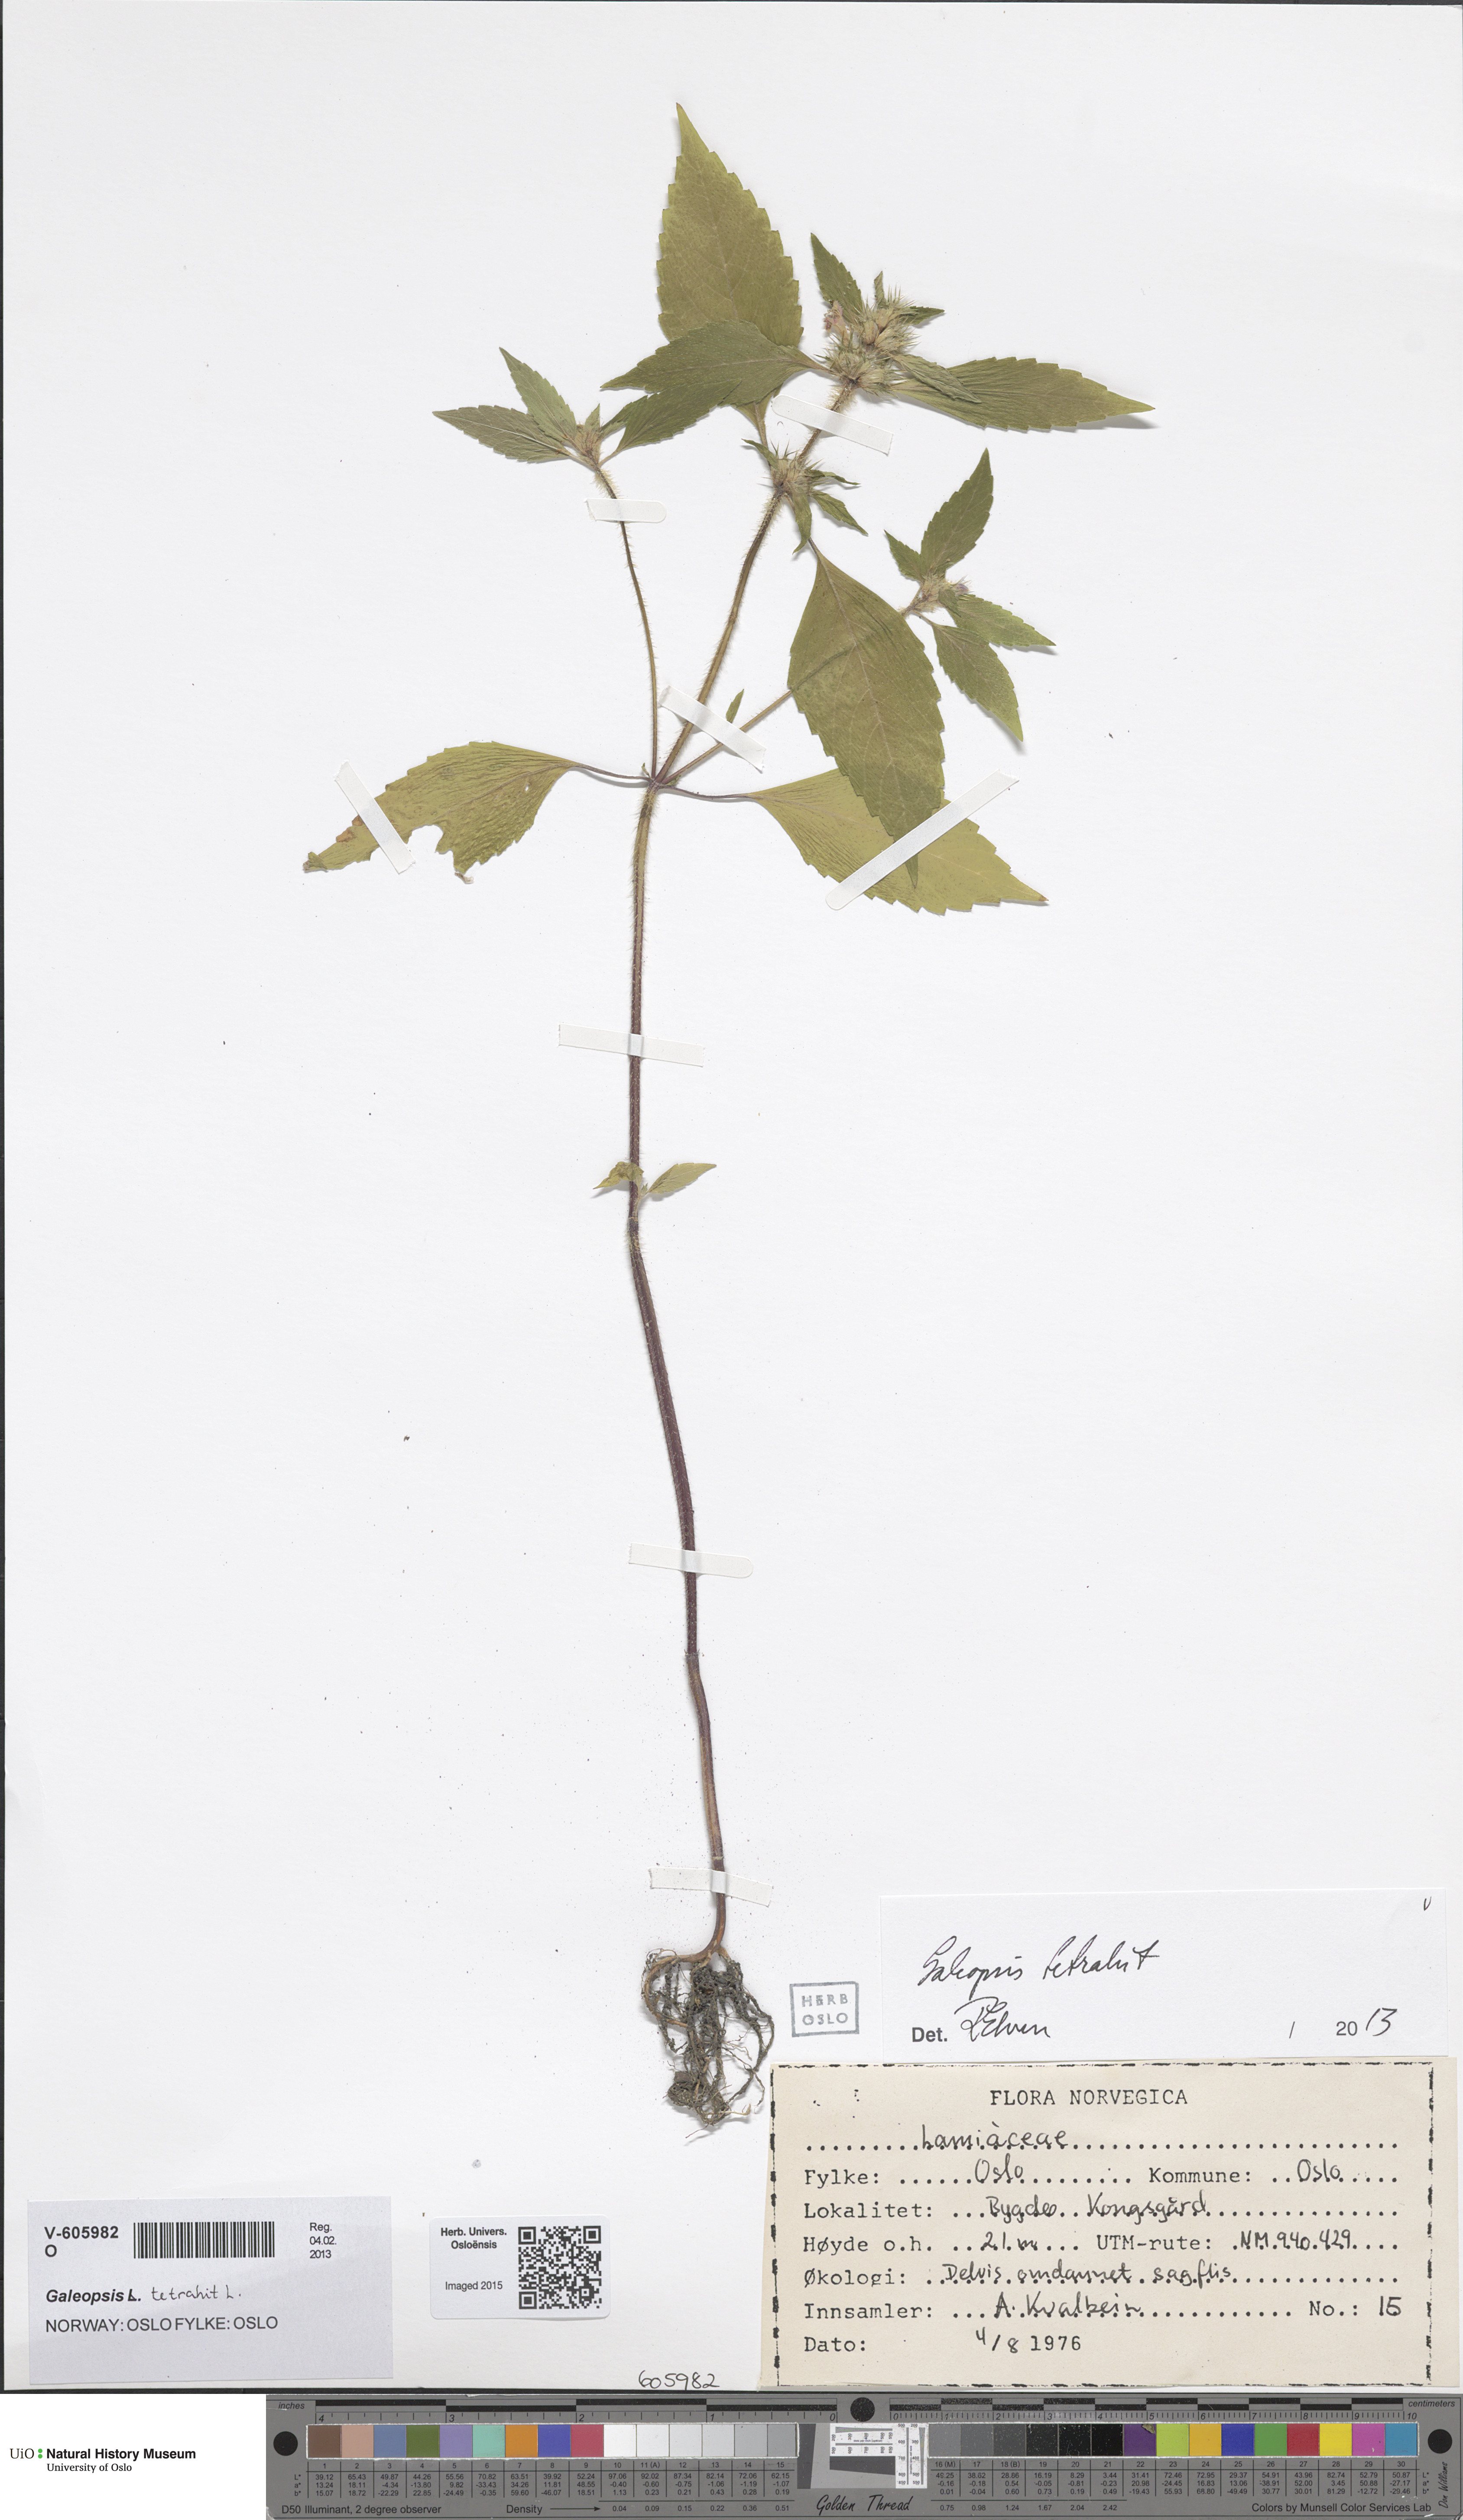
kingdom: Plantae
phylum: Tracheophyta
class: Magnoliopsida
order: Lamiales
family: Lamiaceae
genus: Galeopsis
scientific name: Galeopsis tetrahit
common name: Common hemp-nettle
